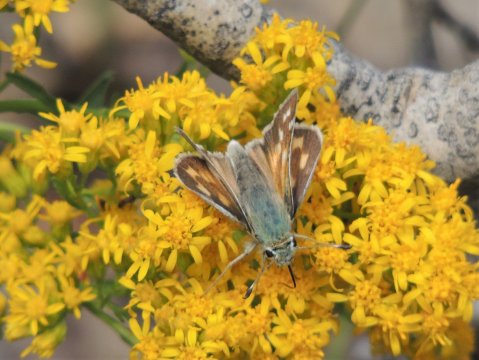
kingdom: Animalia
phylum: Arthropoda
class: Insecta
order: Lepidoptera
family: Hesperiidae
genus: Hesperia
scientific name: Hesperia comma
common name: Western Branded Skipper
